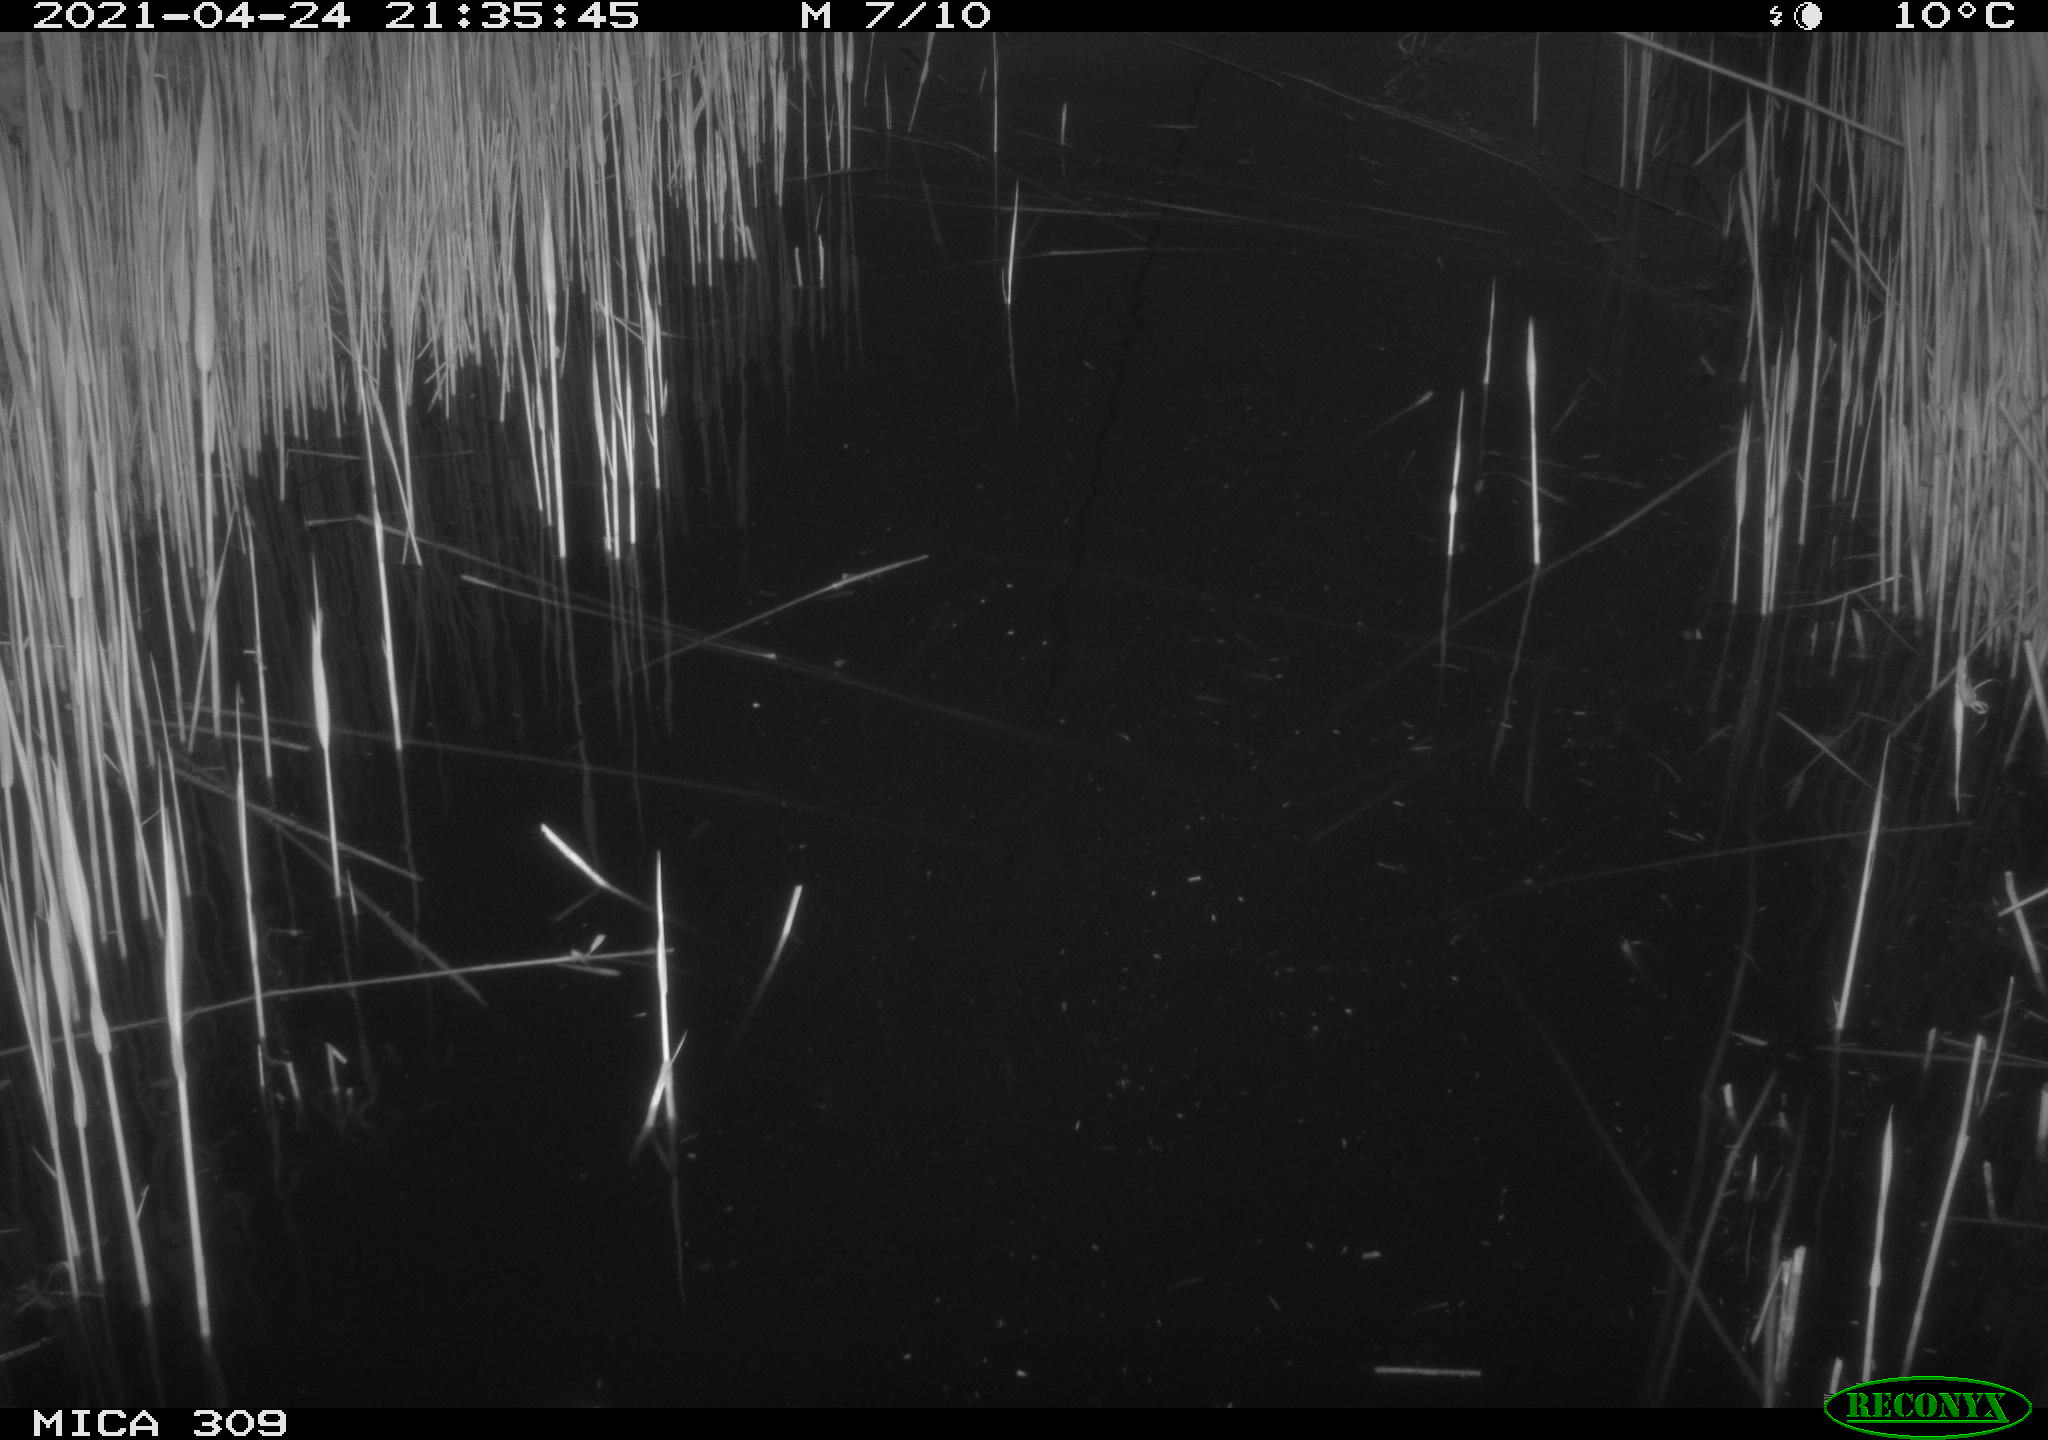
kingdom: Animalia
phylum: Chordata
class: Aves
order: Anseriformes
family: Anatidae
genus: Anas
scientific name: Anas platyrhynchos
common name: Mallard
